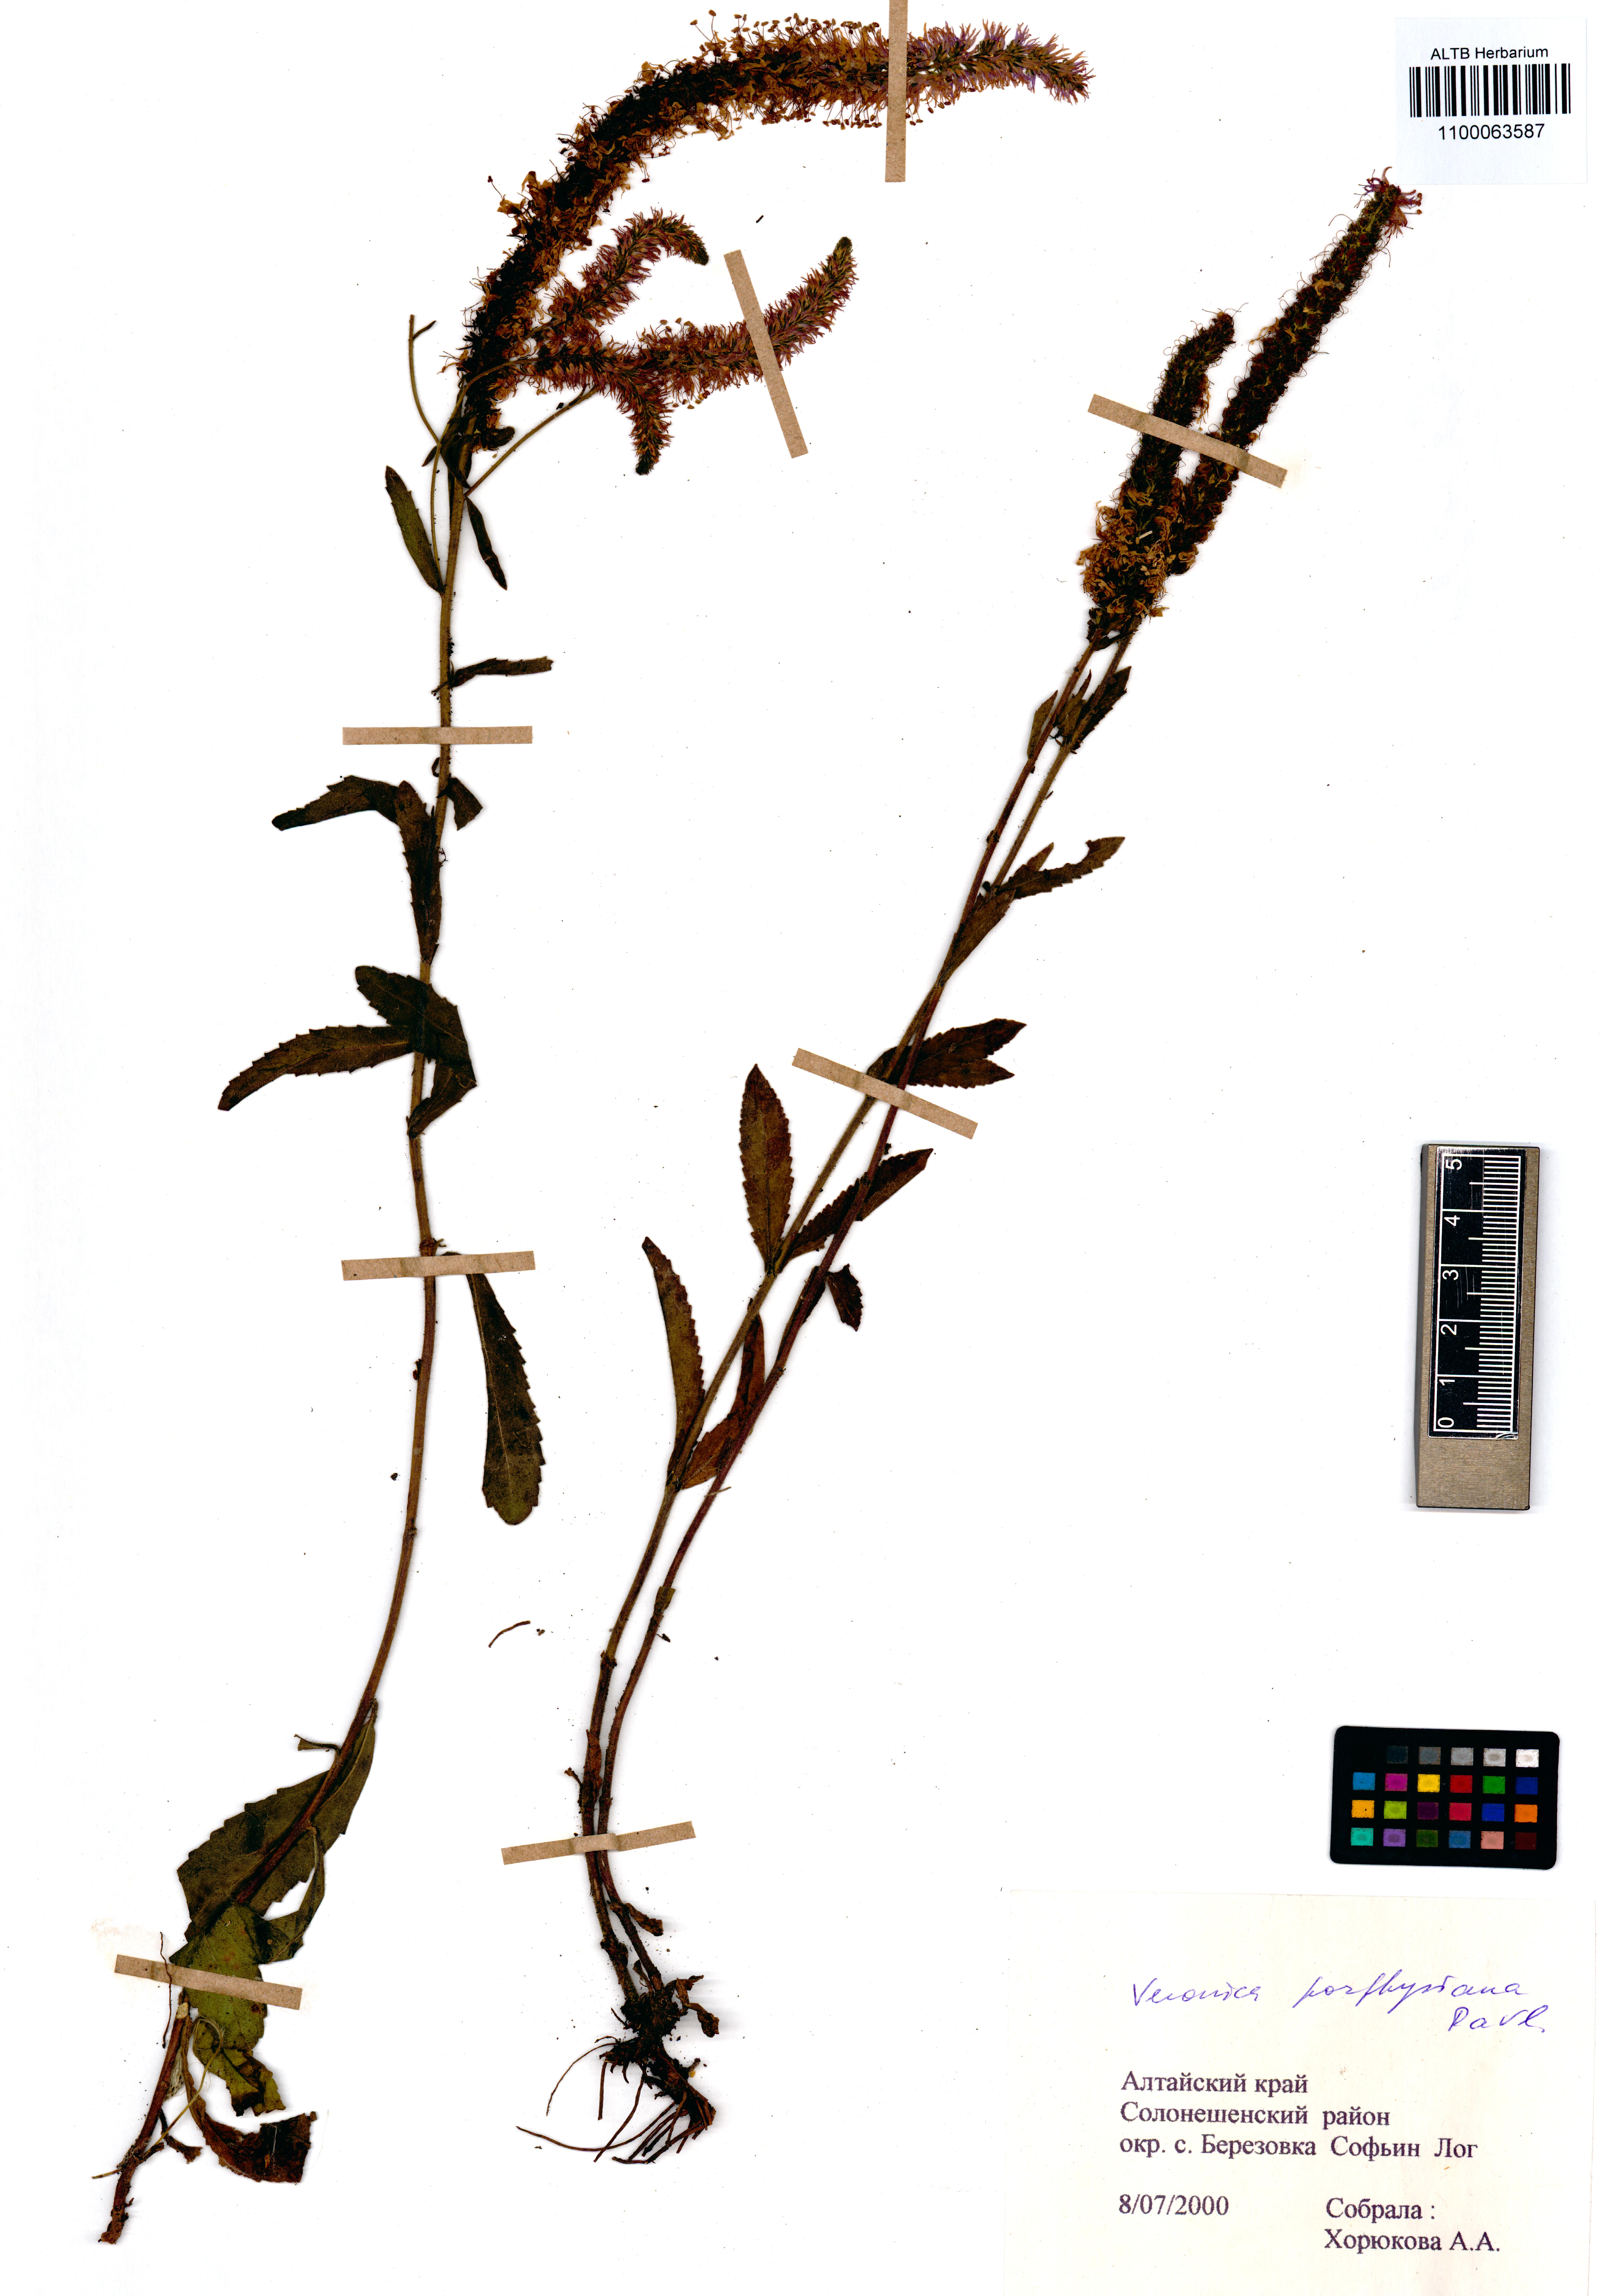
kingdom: Plantae
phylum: Tracheophyta
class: Magnoliopsida
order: Lamiales
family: Plantaginaceae
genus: Veronica
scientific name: Veronica porphyriana
